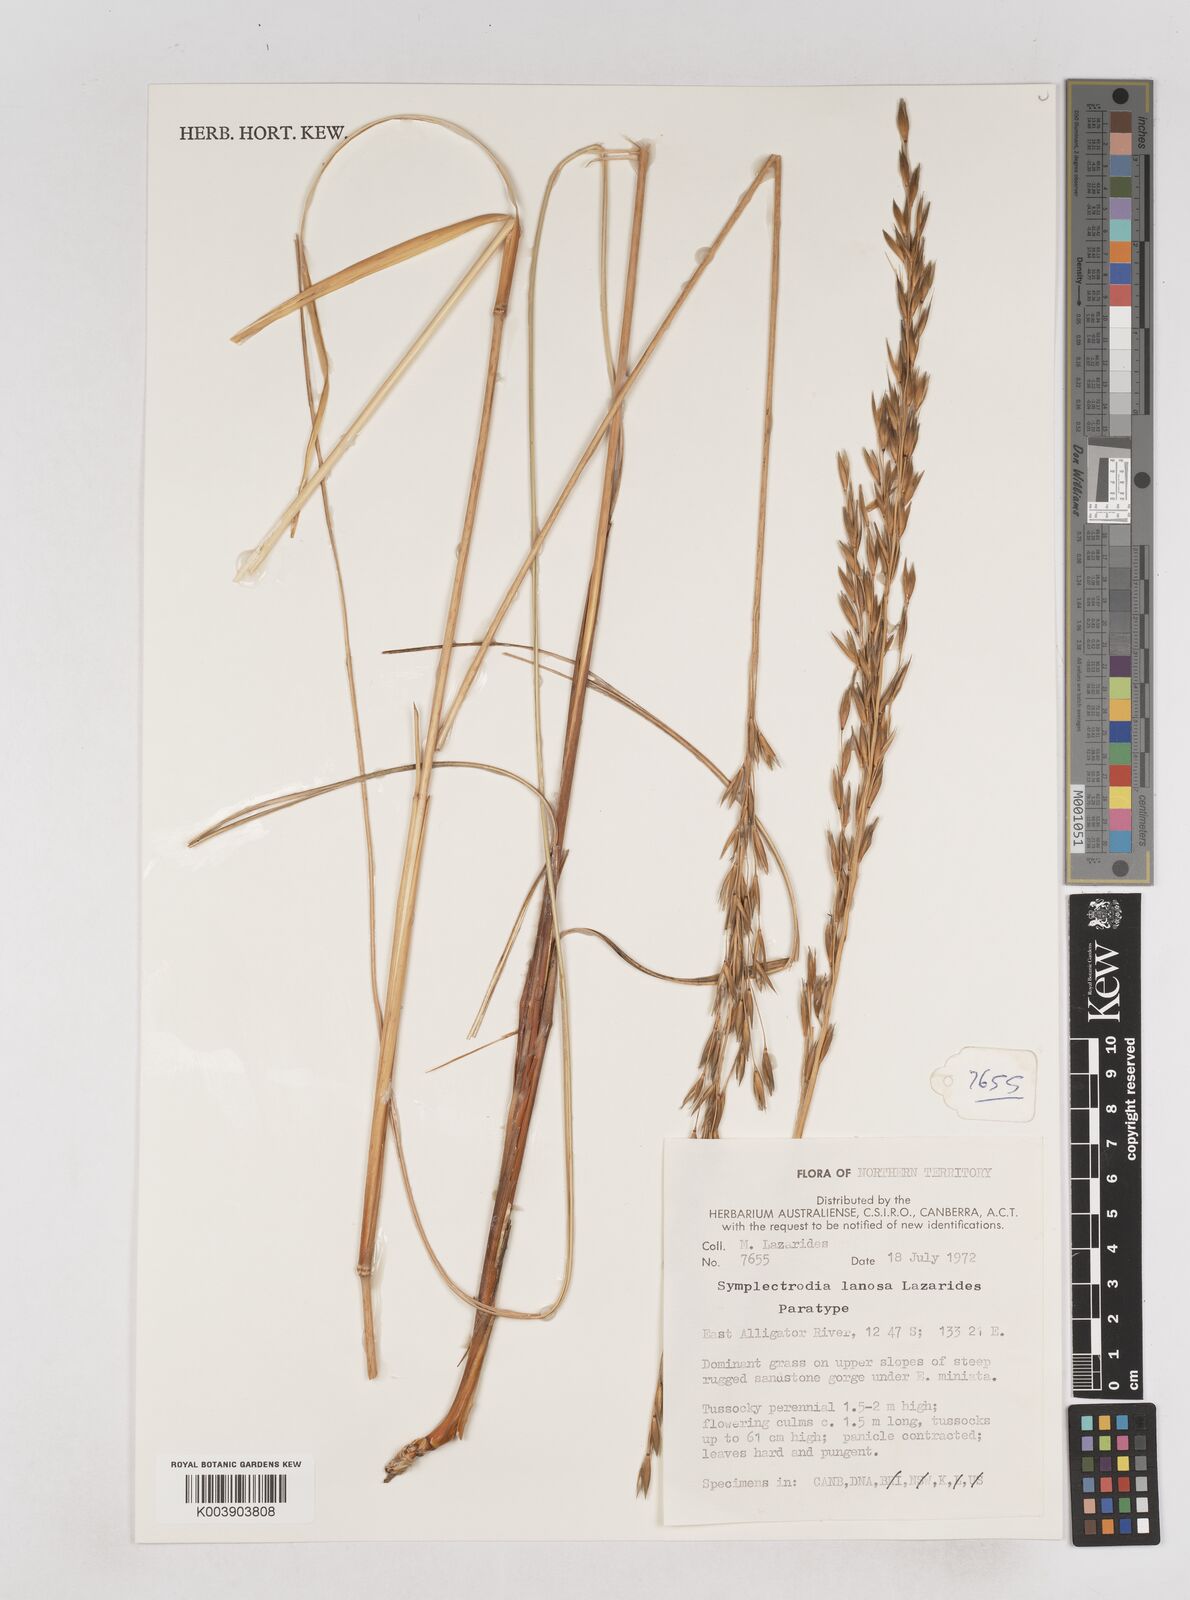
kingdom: Plantae
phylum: Tracheophyta
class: Liliopsida
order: Poales
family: Poaceae
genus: Triodia
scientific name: Triodia lanosa
